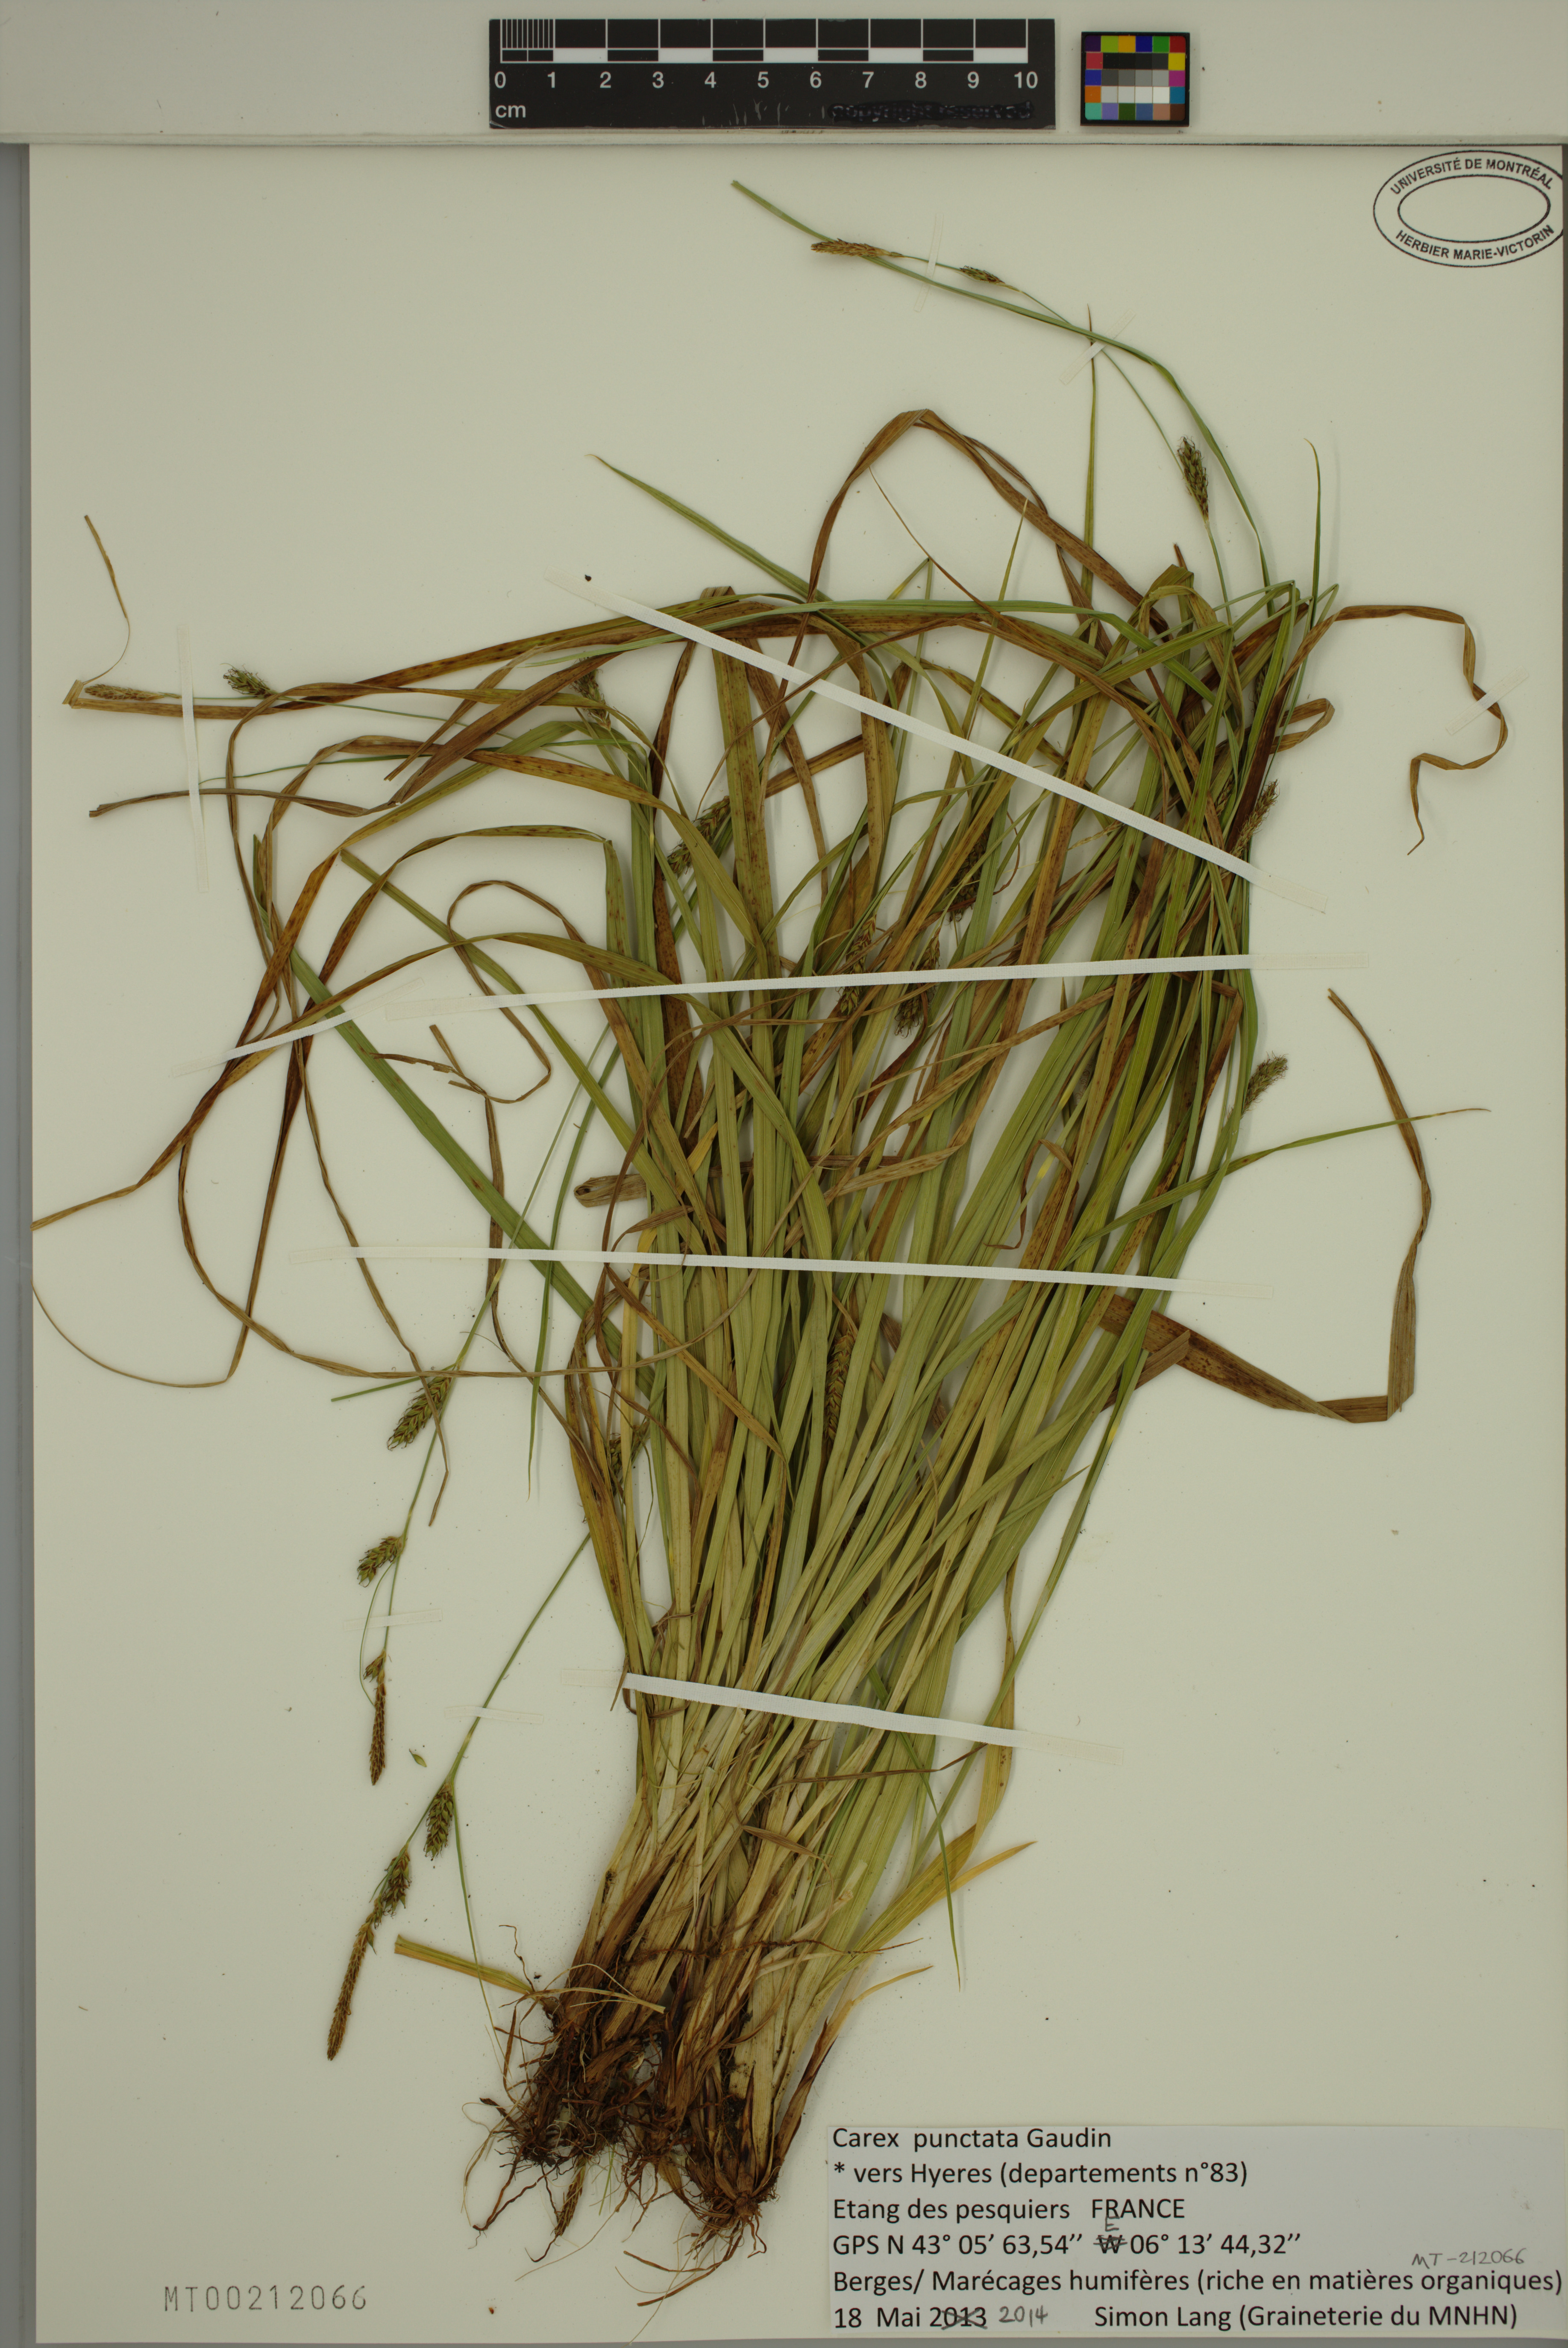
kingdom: Plantae
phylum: Tracheophyta
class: Liliopsida
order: Poales
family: Cyperaceae
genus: Carex
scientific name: Carex punctata
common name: Dotted sedge
